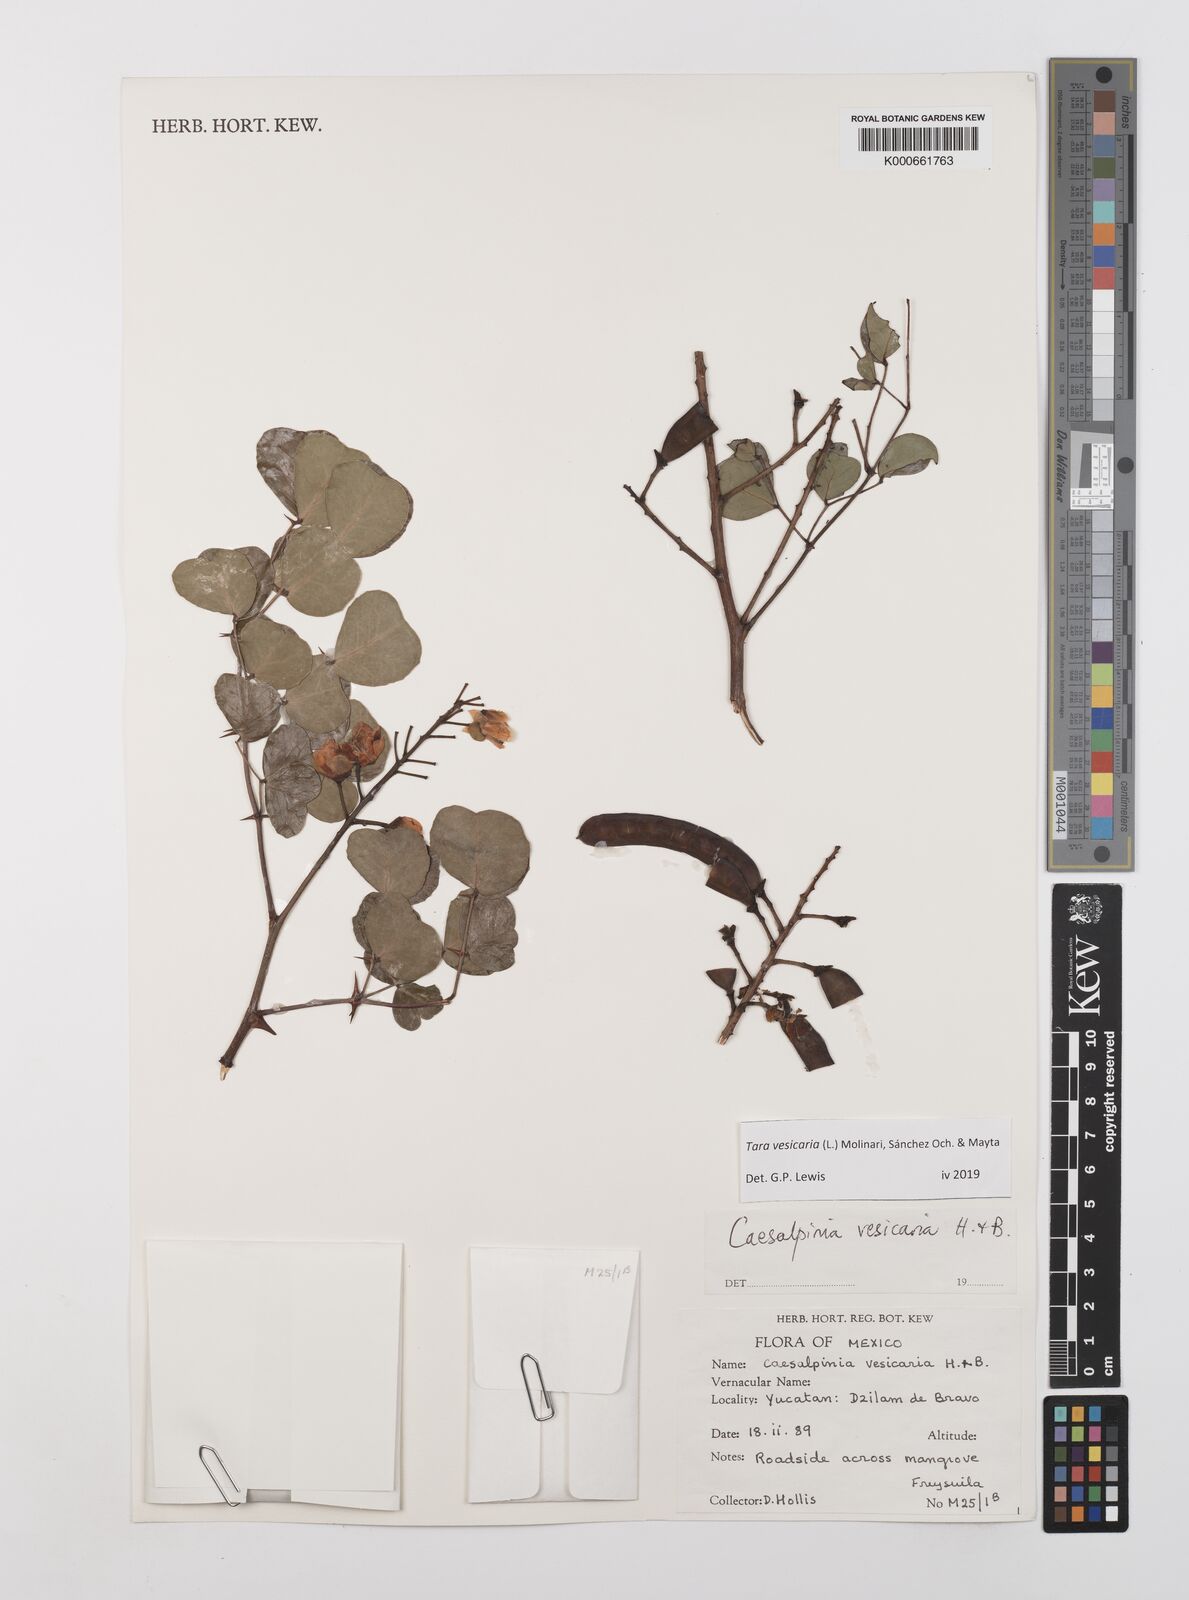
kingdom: Plantae
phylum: Tracheophyta
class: Magnoliopsida
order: Fabales
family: Fabaceae
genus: Tara
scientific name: Tara vesicaria
